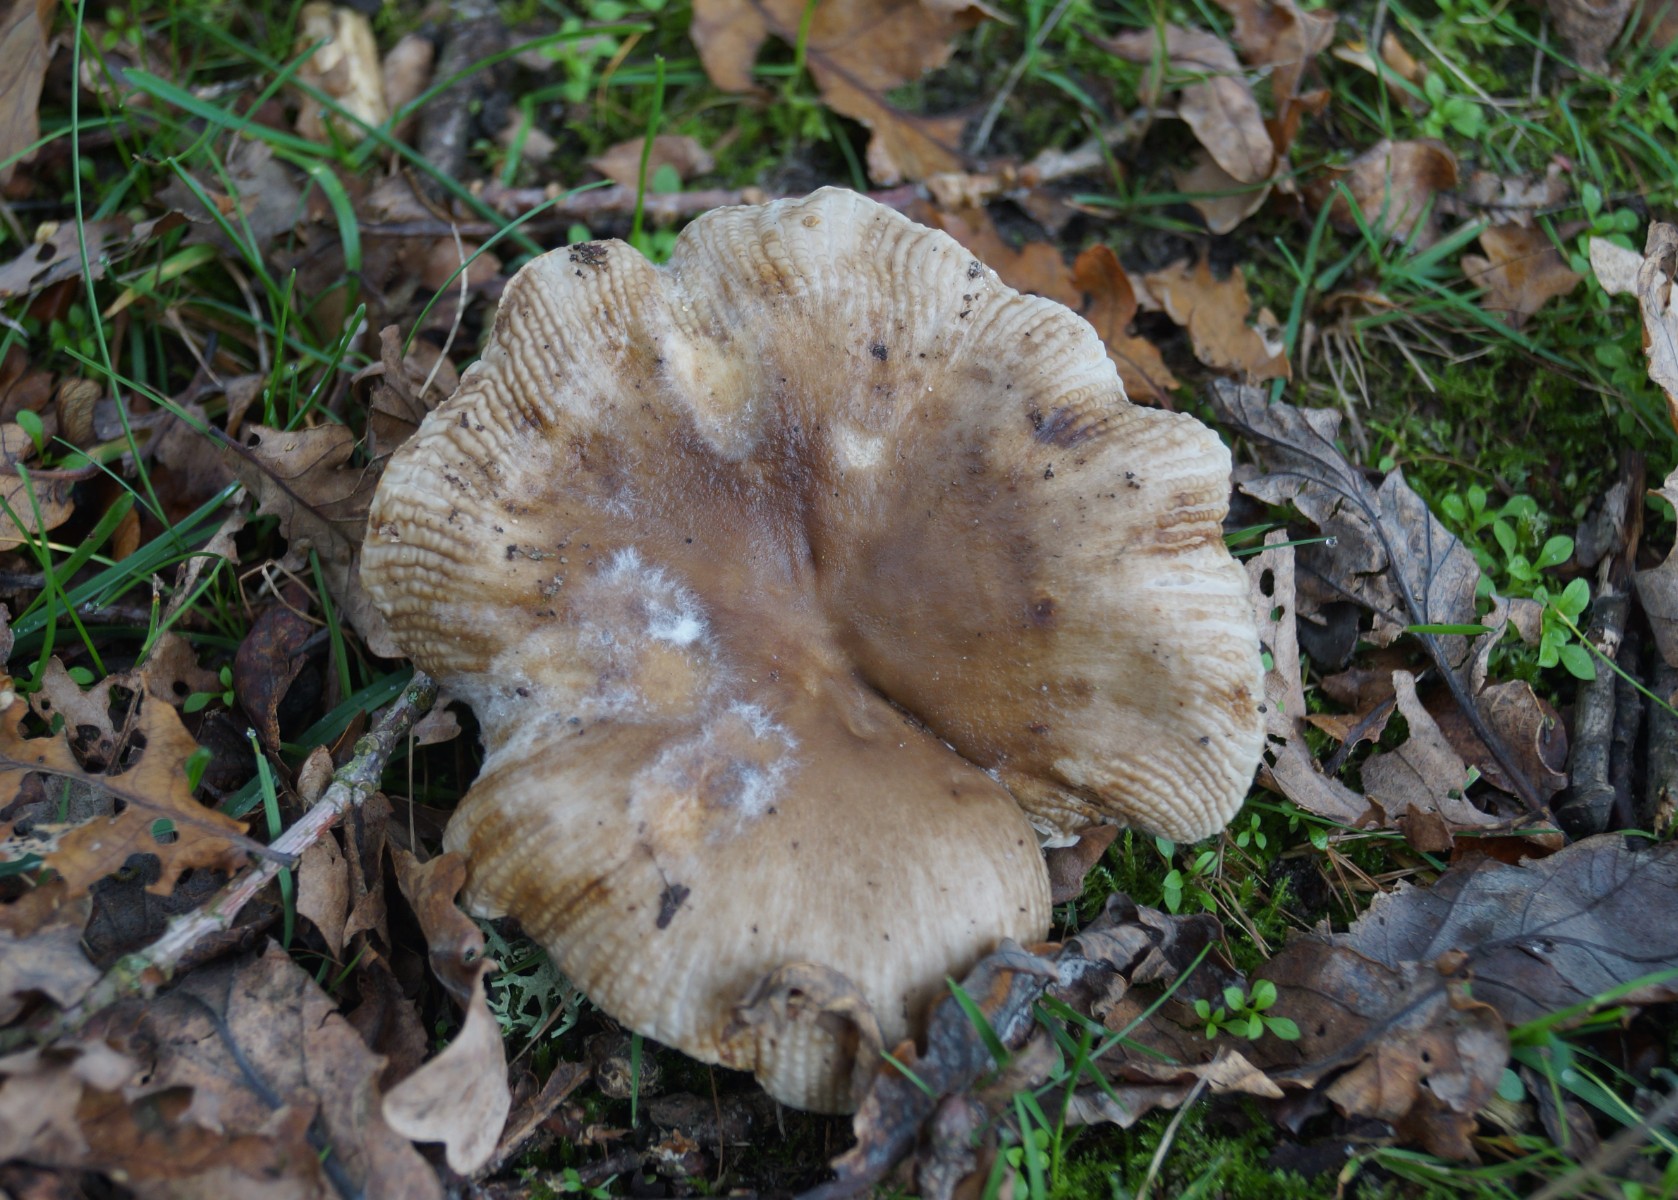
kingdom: Fungi
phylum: Basidiomycota
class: Agaricomycetes
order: Russulales
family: Russulaceae
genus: Russula
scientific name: Russula amoenolens
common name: skarp kam-skørhat
